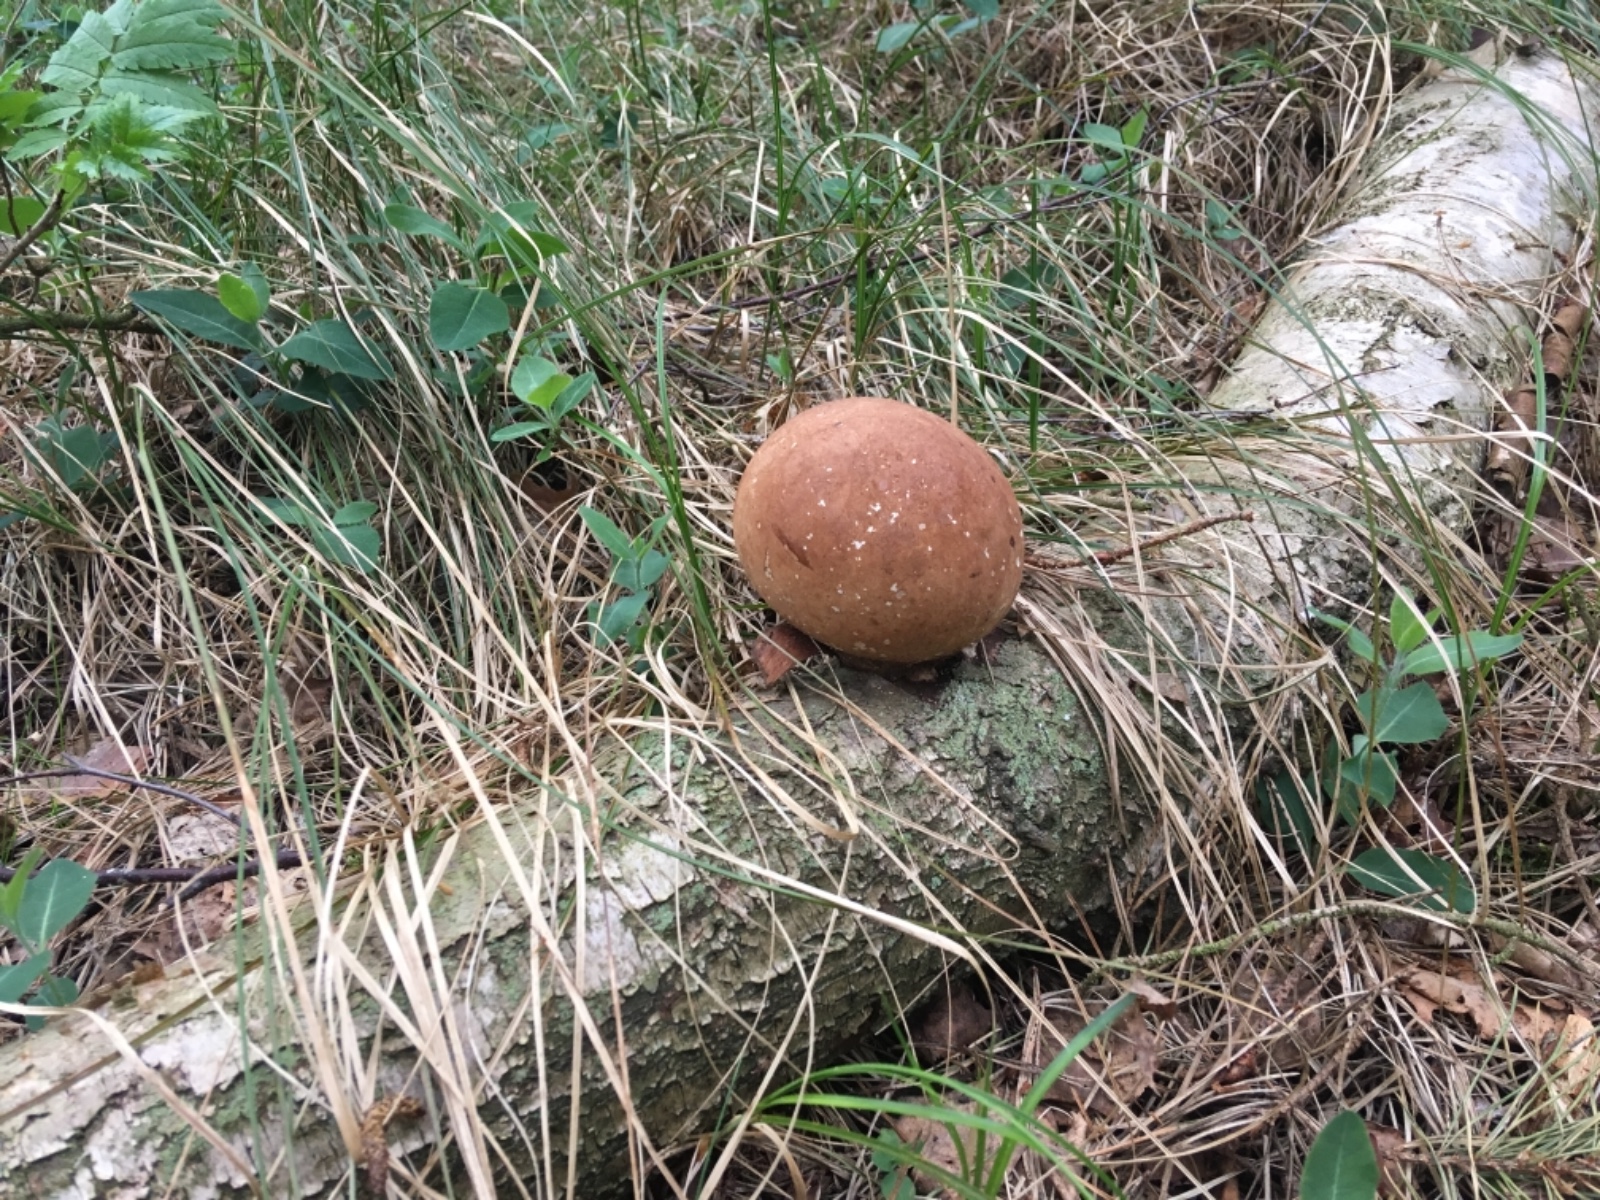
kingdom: Fungi
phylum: Basidiomycota
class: Agaricomycetes
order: Polyporales
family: Fomitopsidaceae
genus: Fomitopsis
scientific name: Fomitopsis betulina
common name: birkeporesvamp
